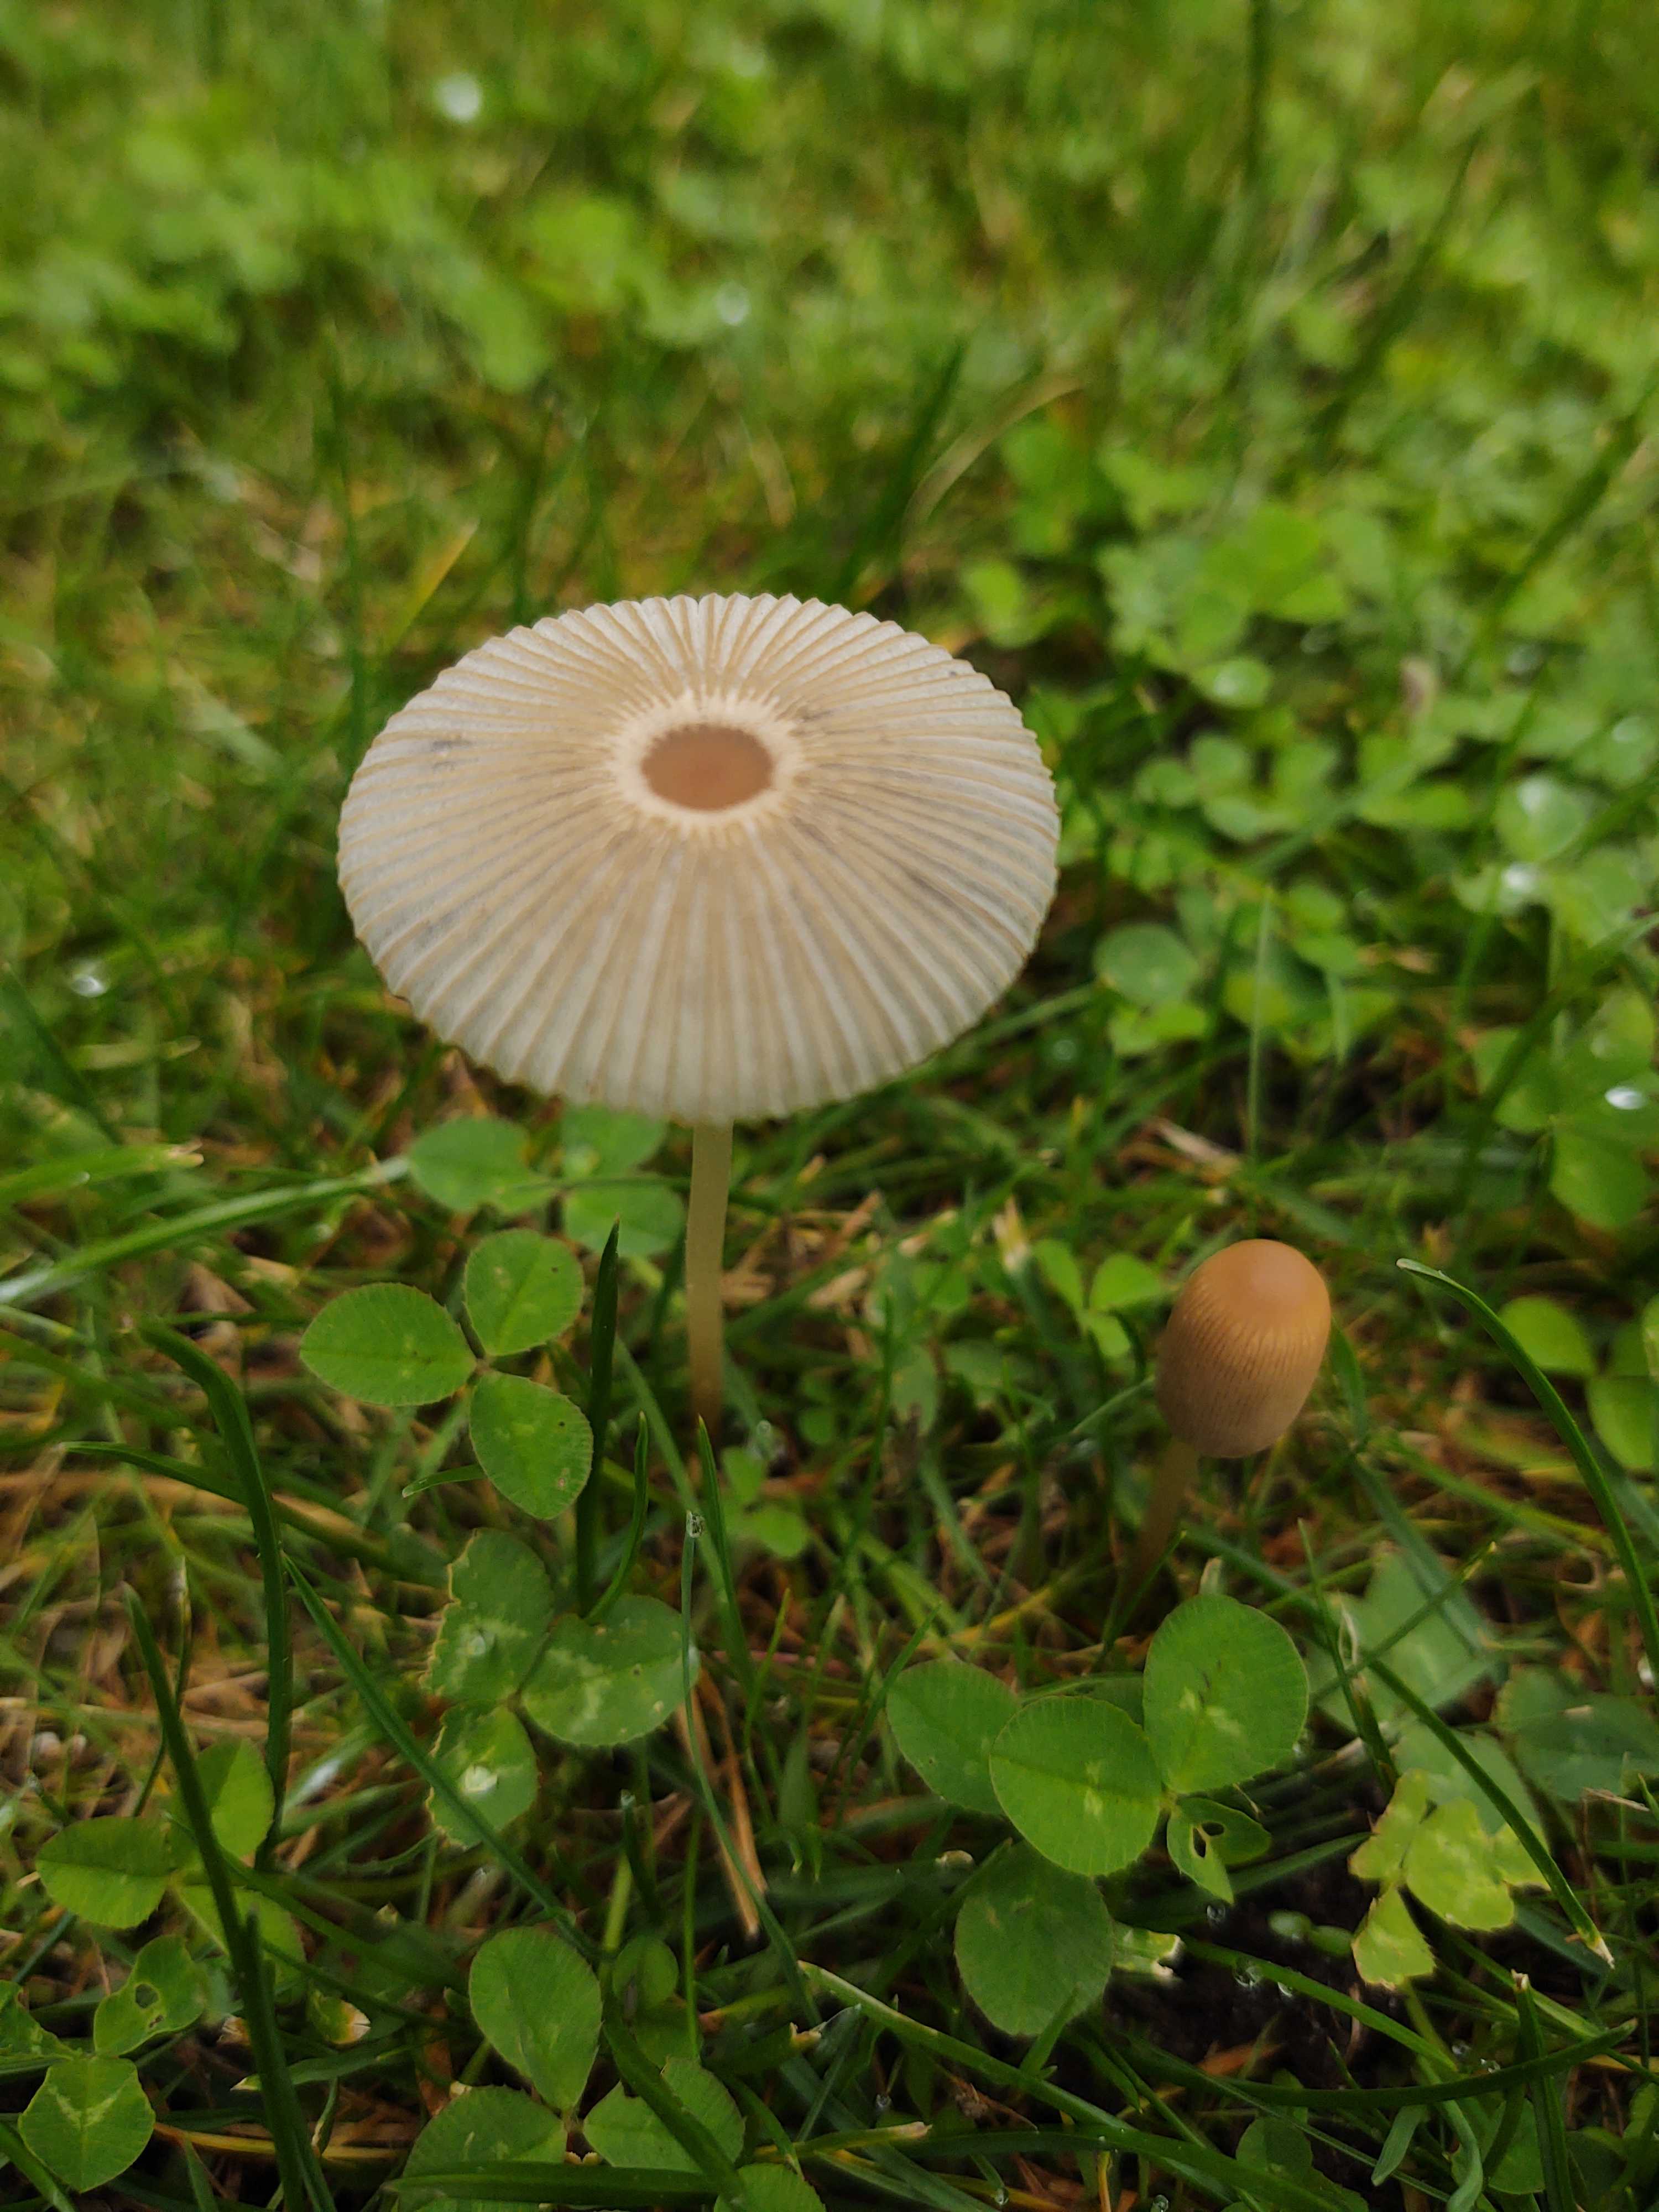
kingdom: Fungi
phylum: Basidiomycota
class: Agaricomycetes
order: Agaricales
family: Psathyrellaceae
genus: Parasola
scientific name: Parasola
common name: hjulhat
